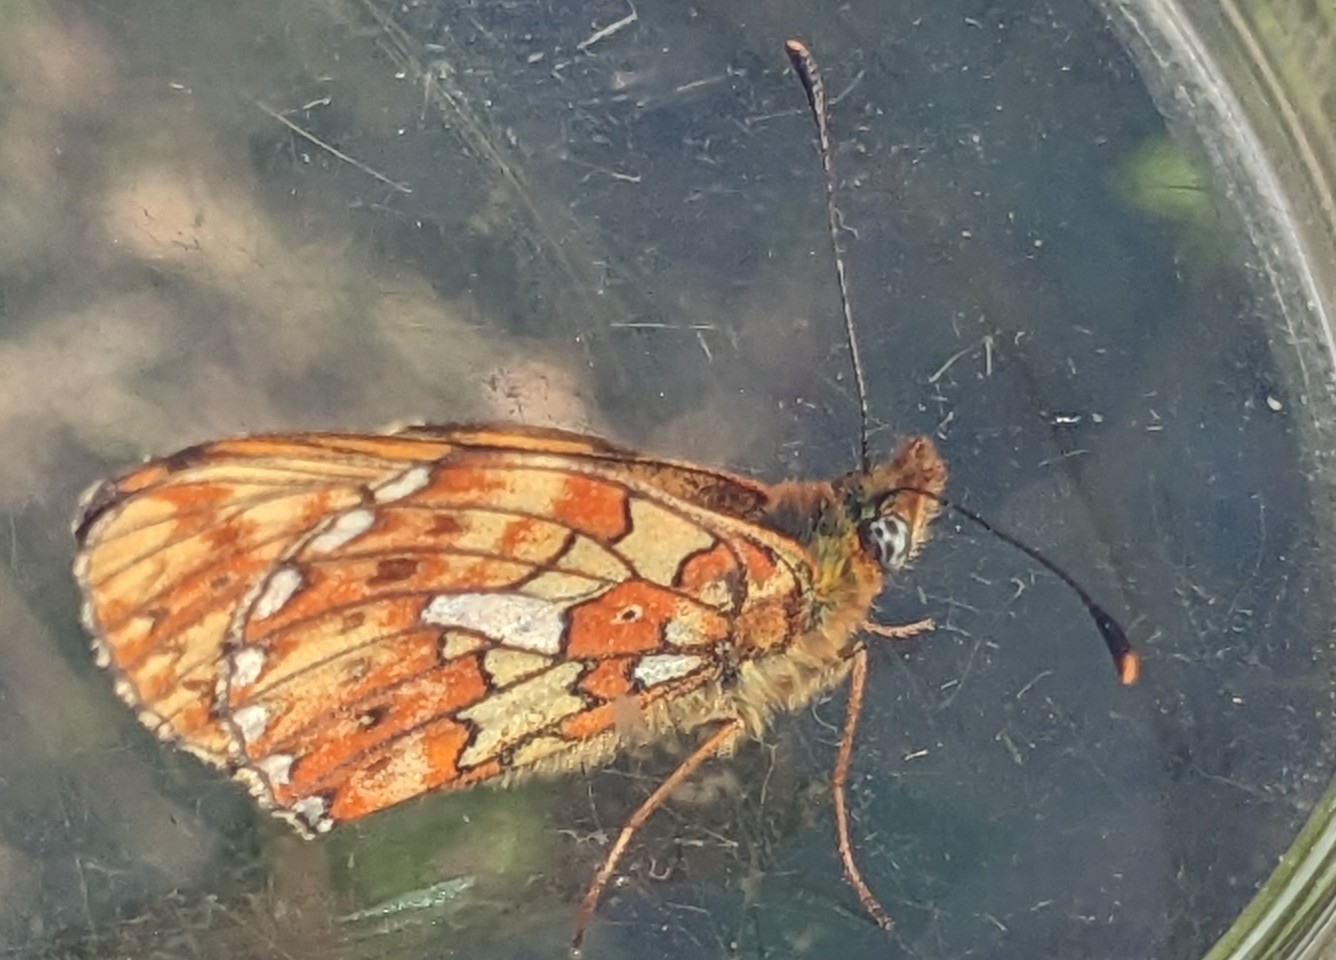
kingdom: Animalia
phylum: Arthropoda
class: Insecta
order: Lepidoptera
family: Nymphalidae
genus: Clossiana
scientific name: Clossiana euphrosyne
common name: Rødlig perlemorsommerfugl
